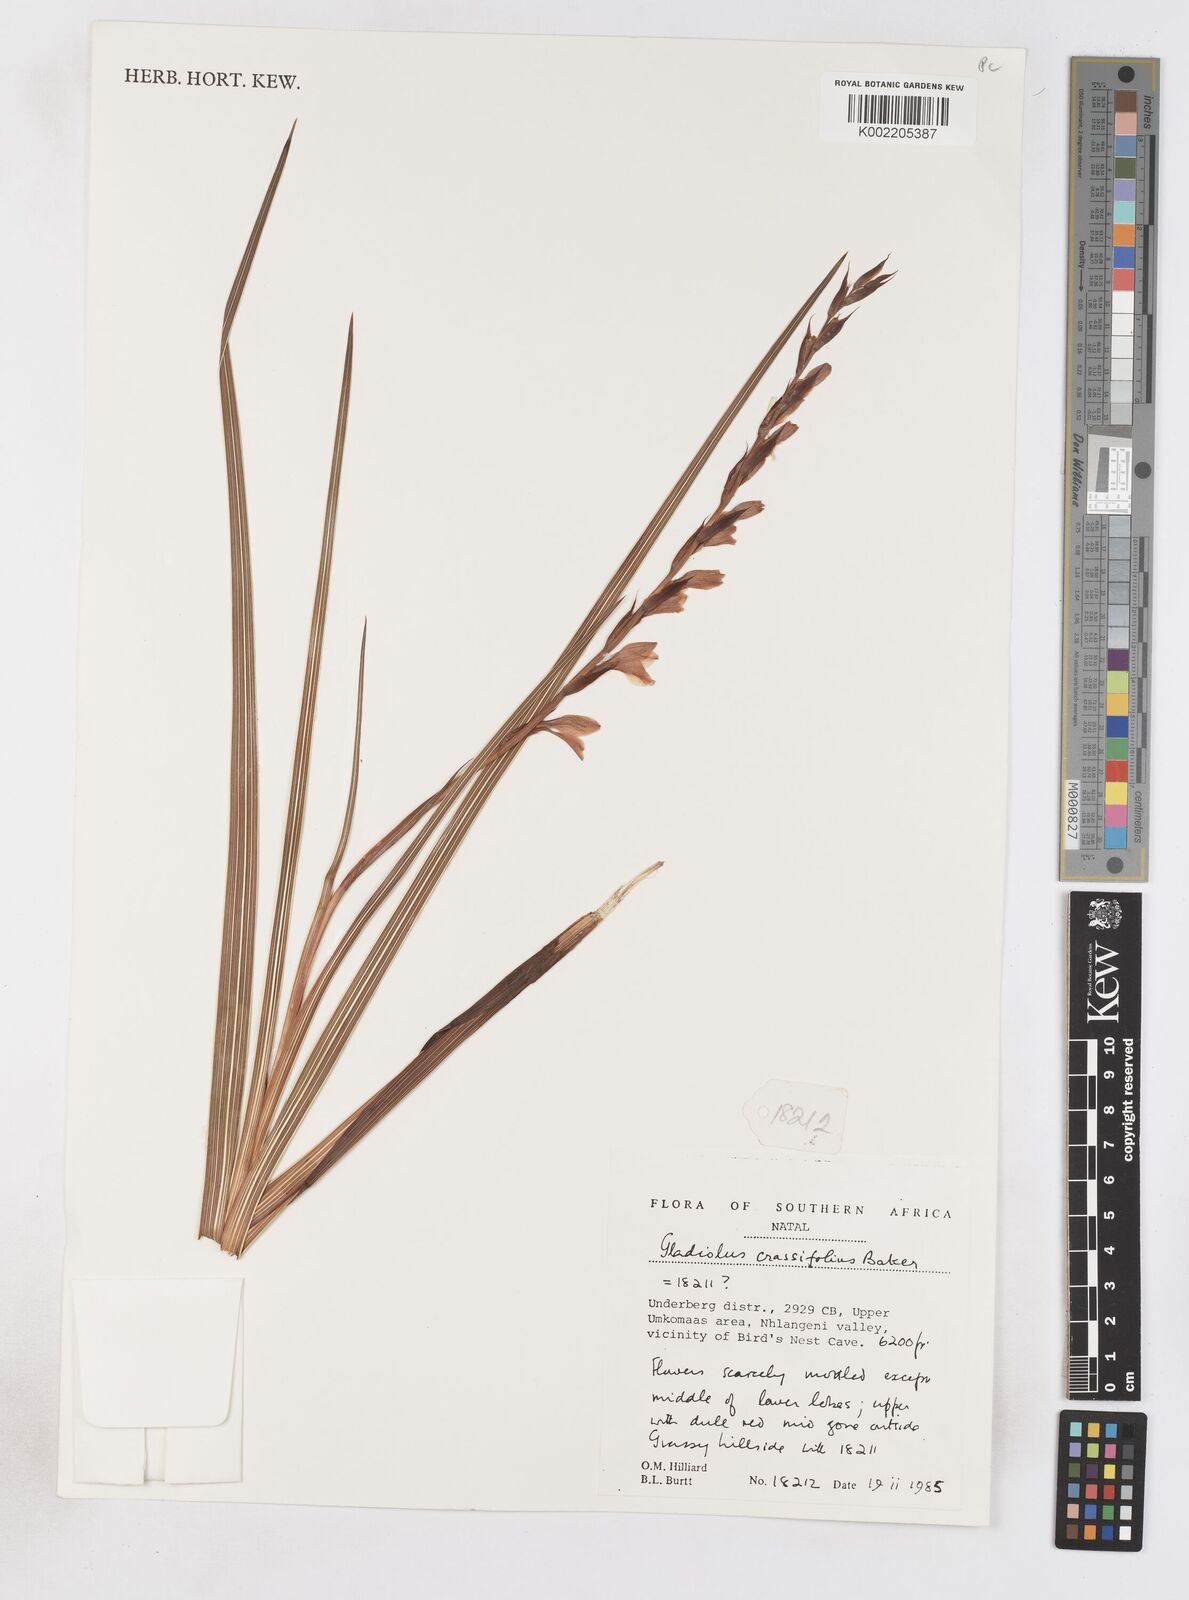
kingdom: Plantae
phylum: Tracheophyta
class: Liliopsida
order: Asparagales
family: Iridaceae
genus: Gladiolus
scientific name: Gladiolus crassifolius
